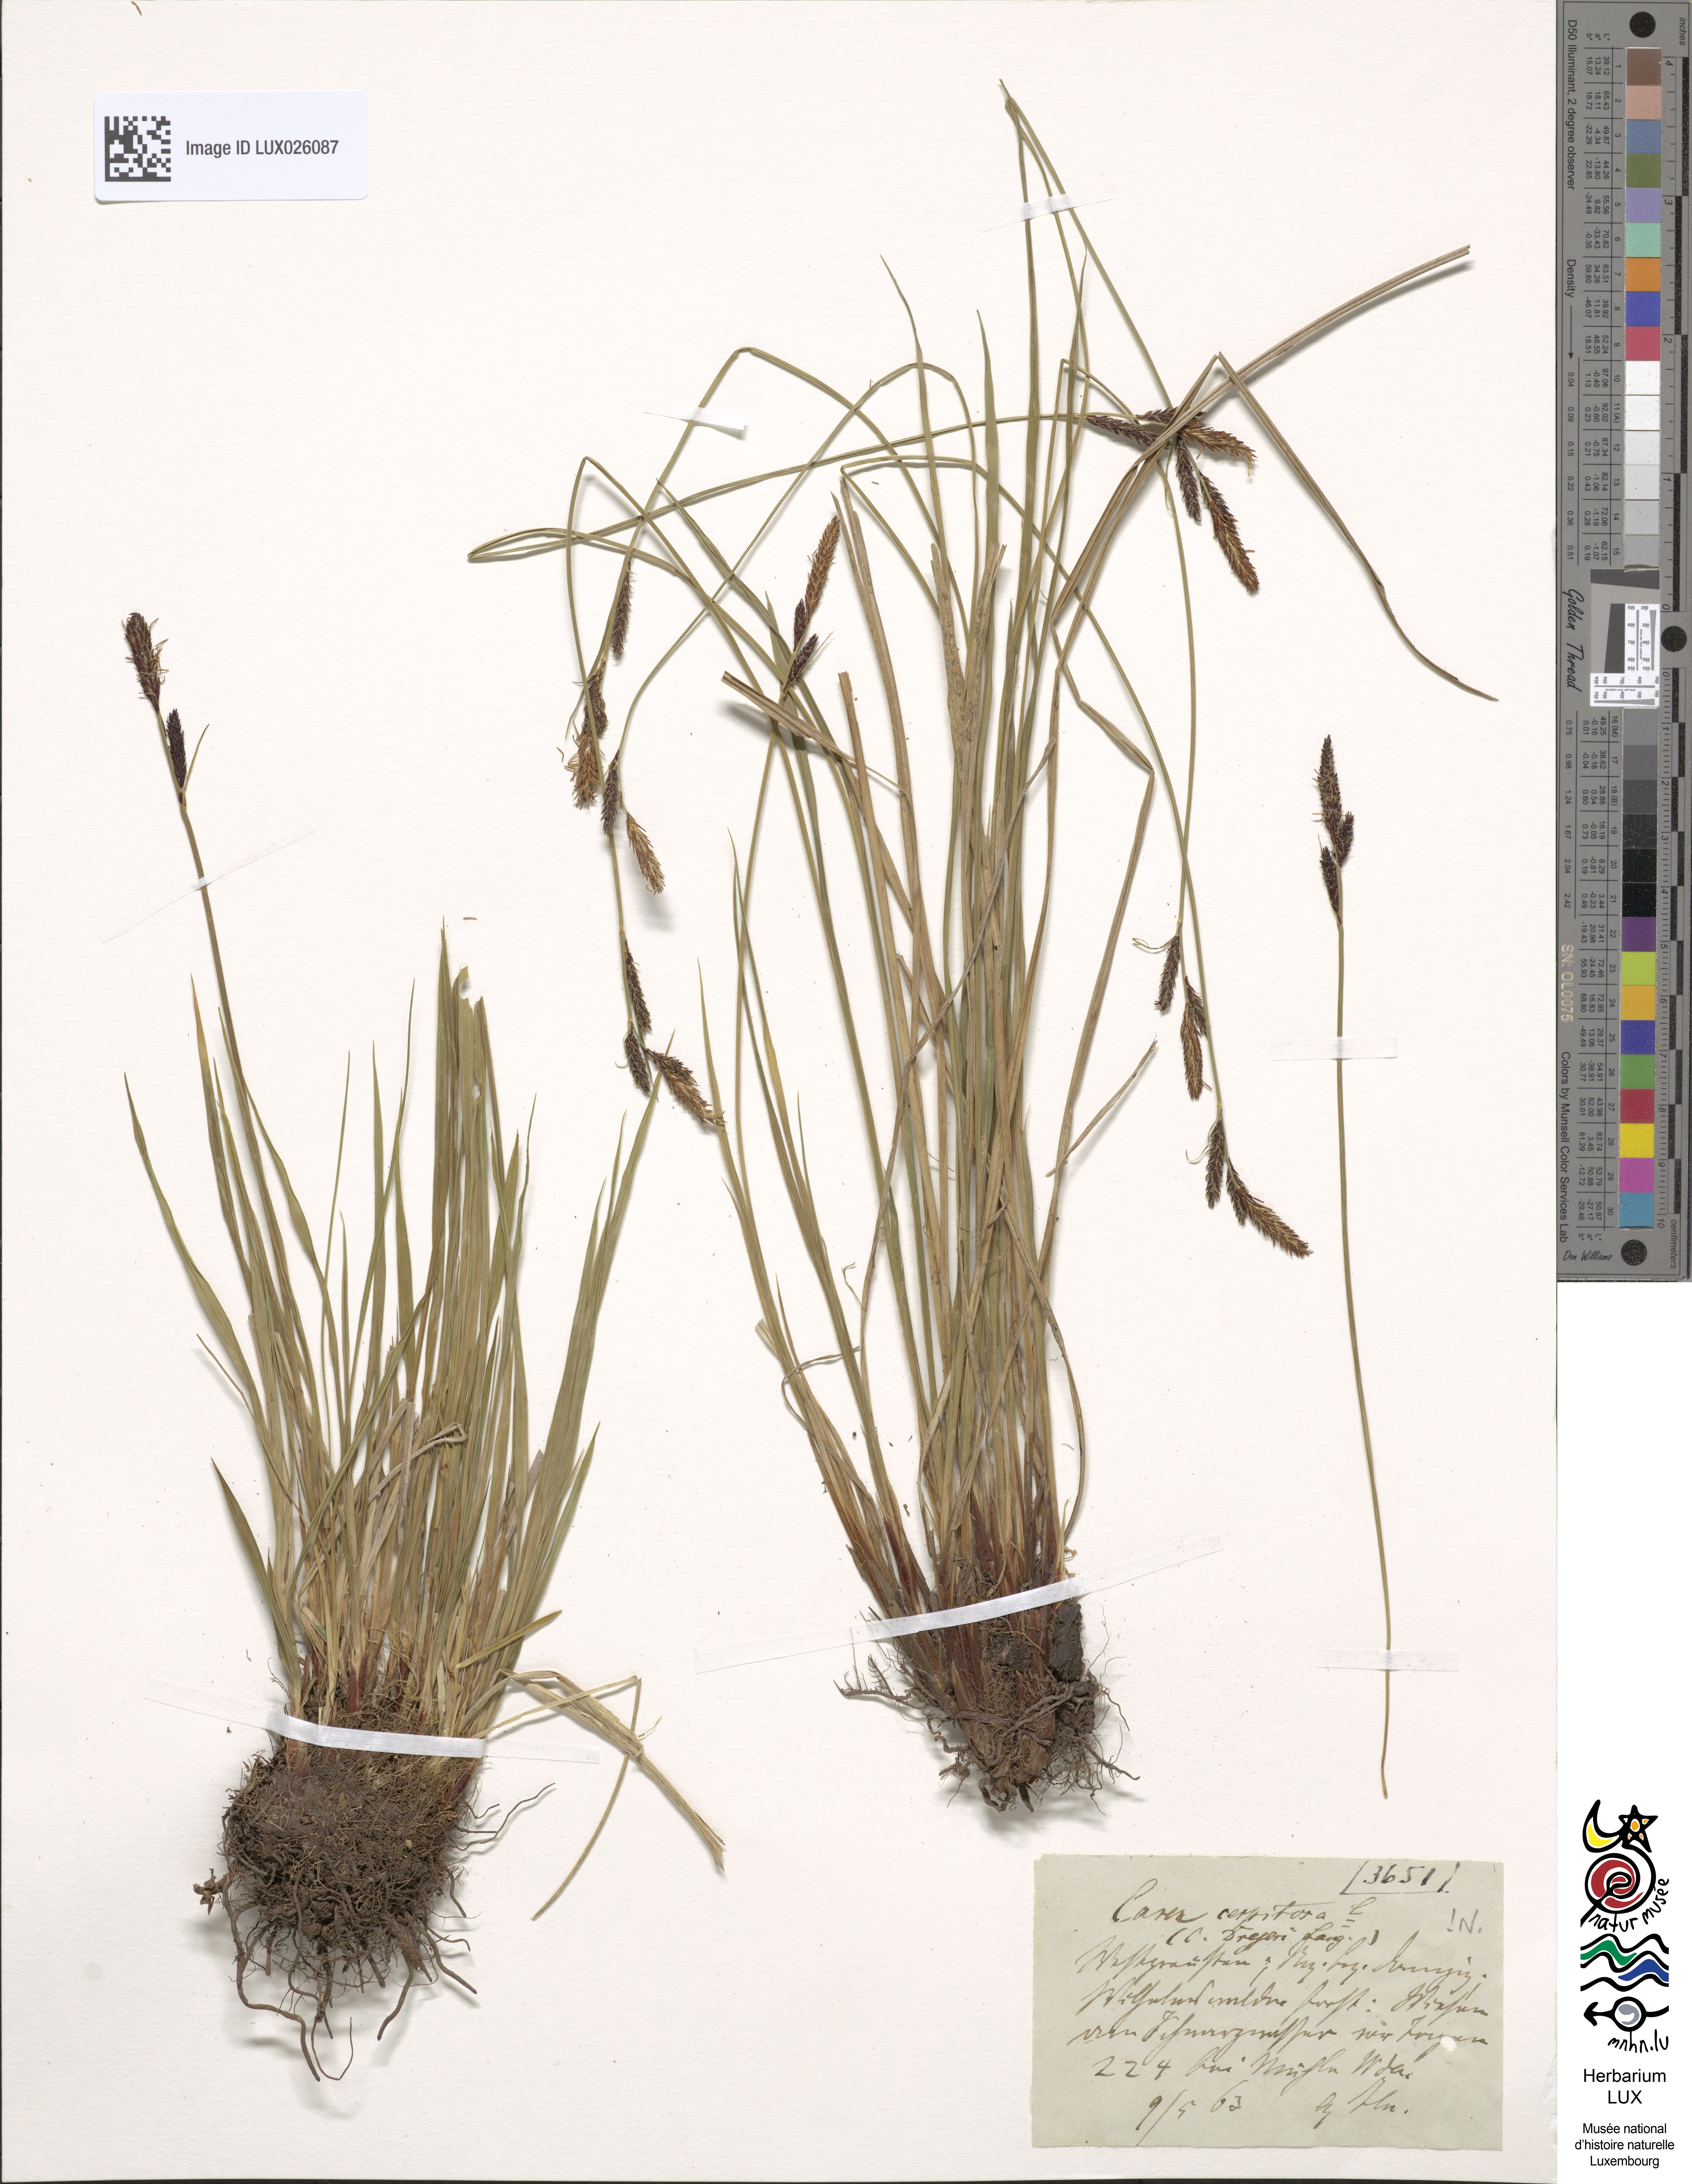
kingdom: Plantae
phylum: Tracheophyta
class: Liliopsida
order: Poales
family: Cyperaceae
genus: Carex
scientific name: Carex cespitosa
